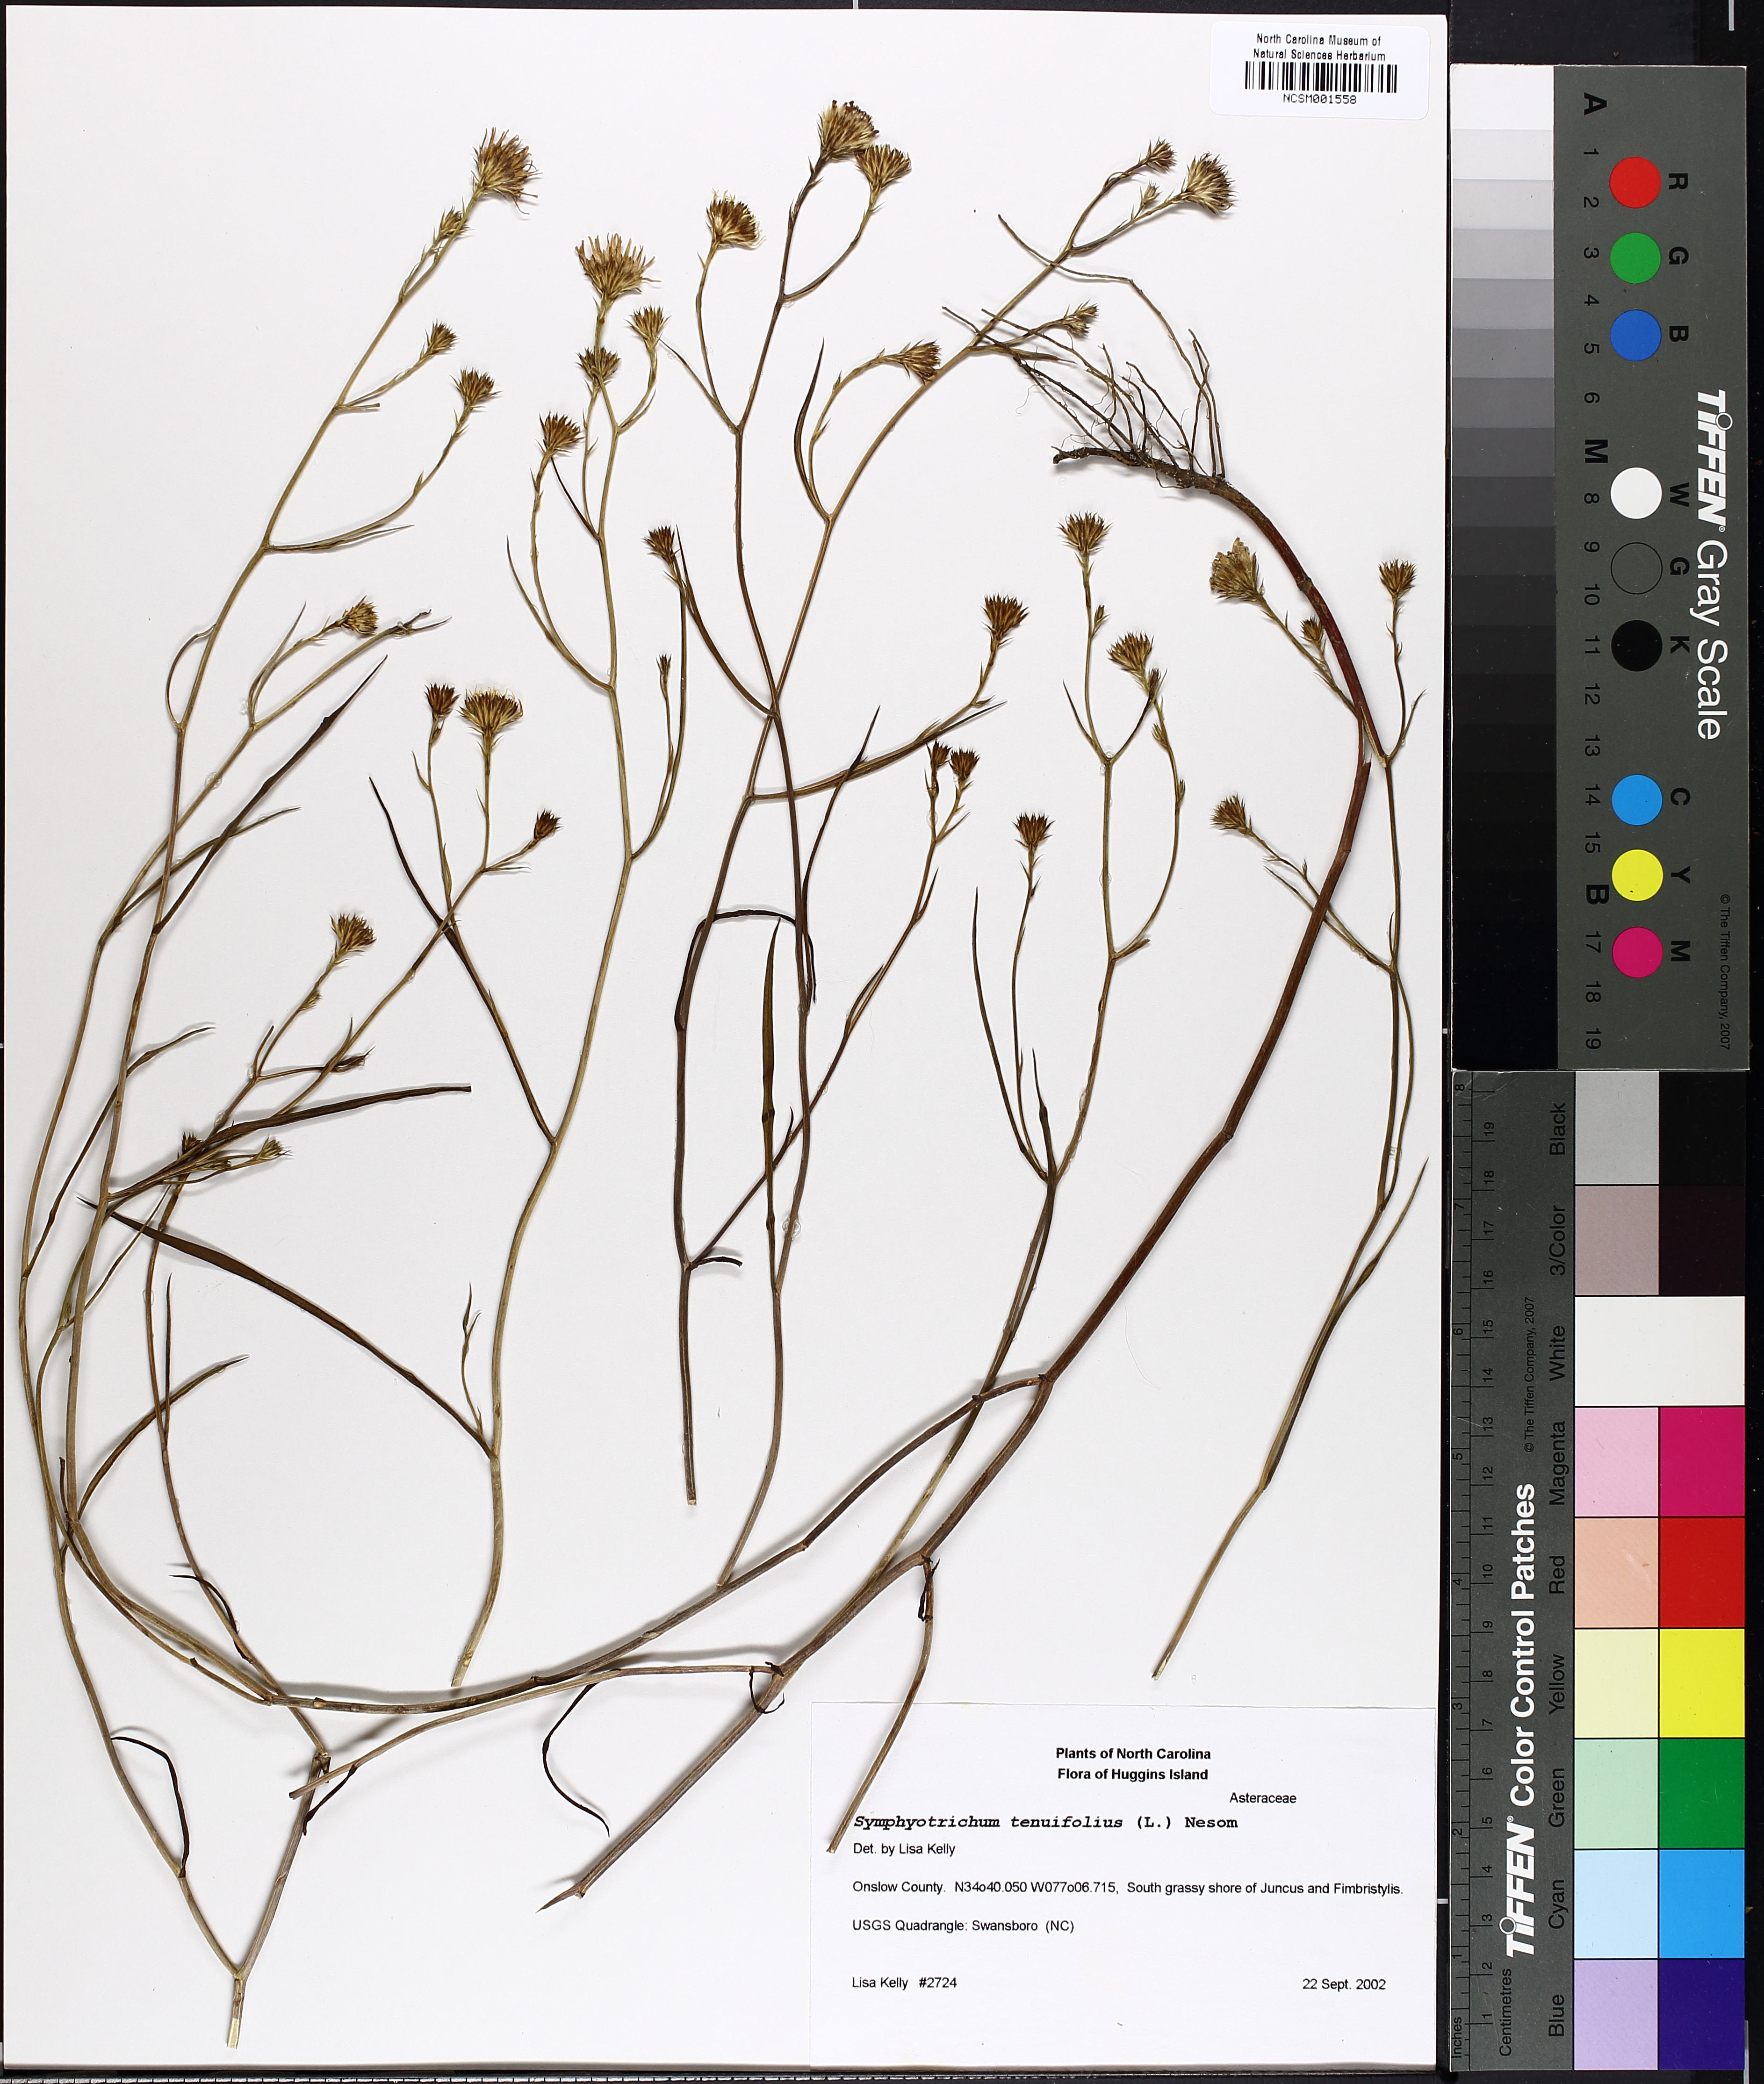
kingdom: Plantae
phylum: Tracheophyta
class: Magnoliopsida
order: Asterales
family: Asteraceae
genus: Symphyotrichum
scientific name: Symphyotrichum tenuifolium
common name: Perennial salt-marsh aster
